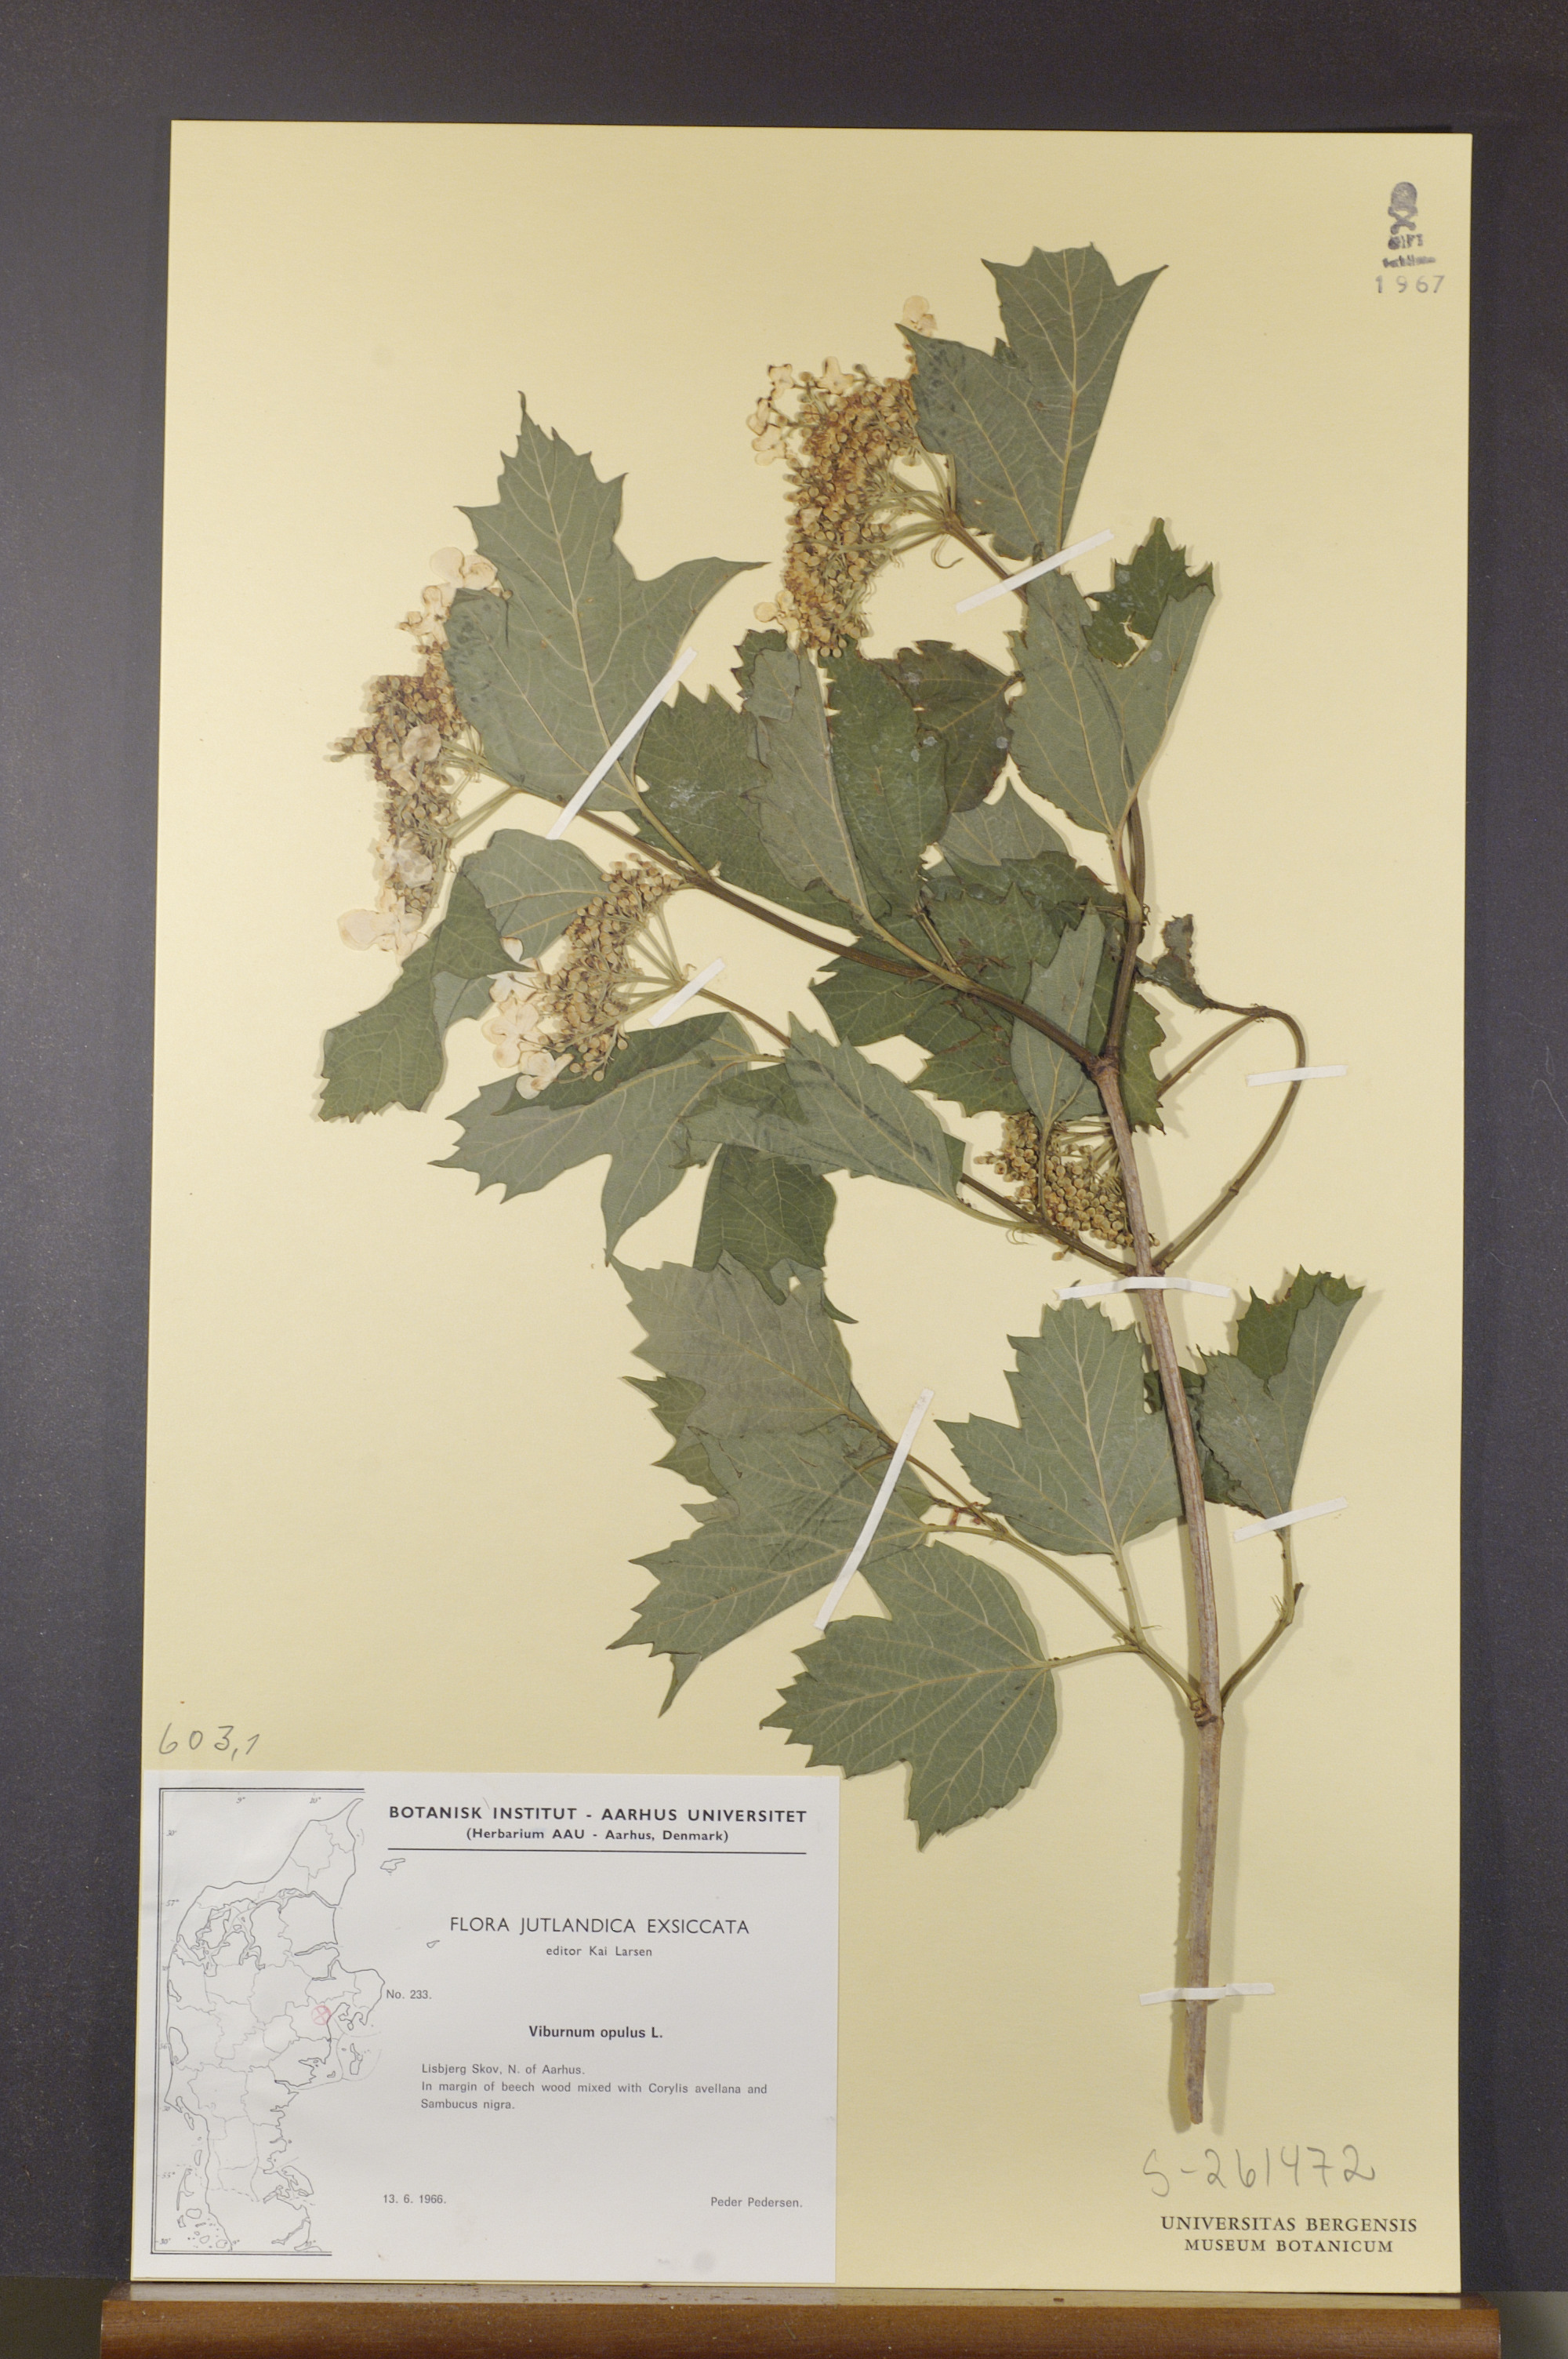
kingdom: Plantae
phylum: Tracheophyta
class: Magnoliopsida
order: Dipsacales
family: Viburnaceae
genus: Viburnum
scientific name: Viburnum opulus
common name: Guelder-rose
